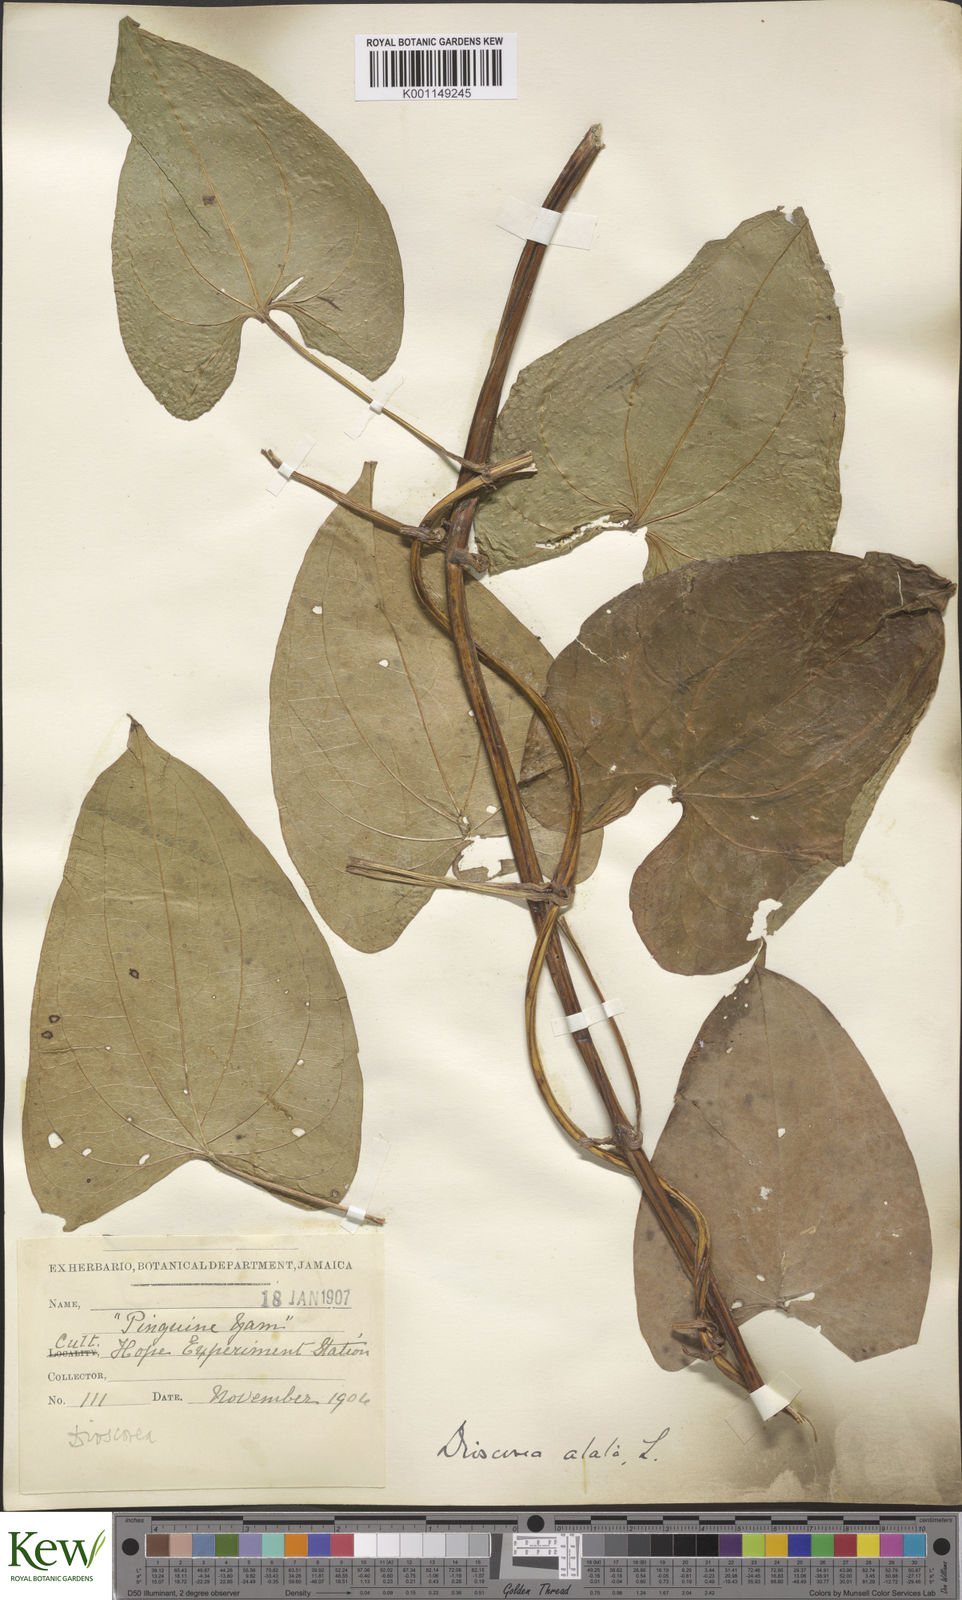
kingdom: Plantae
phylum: Tracheophyta
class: Liliopsida
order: Dioscoreales
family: Dioscoreaceae
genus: Dioscorea
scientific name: Dioscorea alata
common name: Water yam
